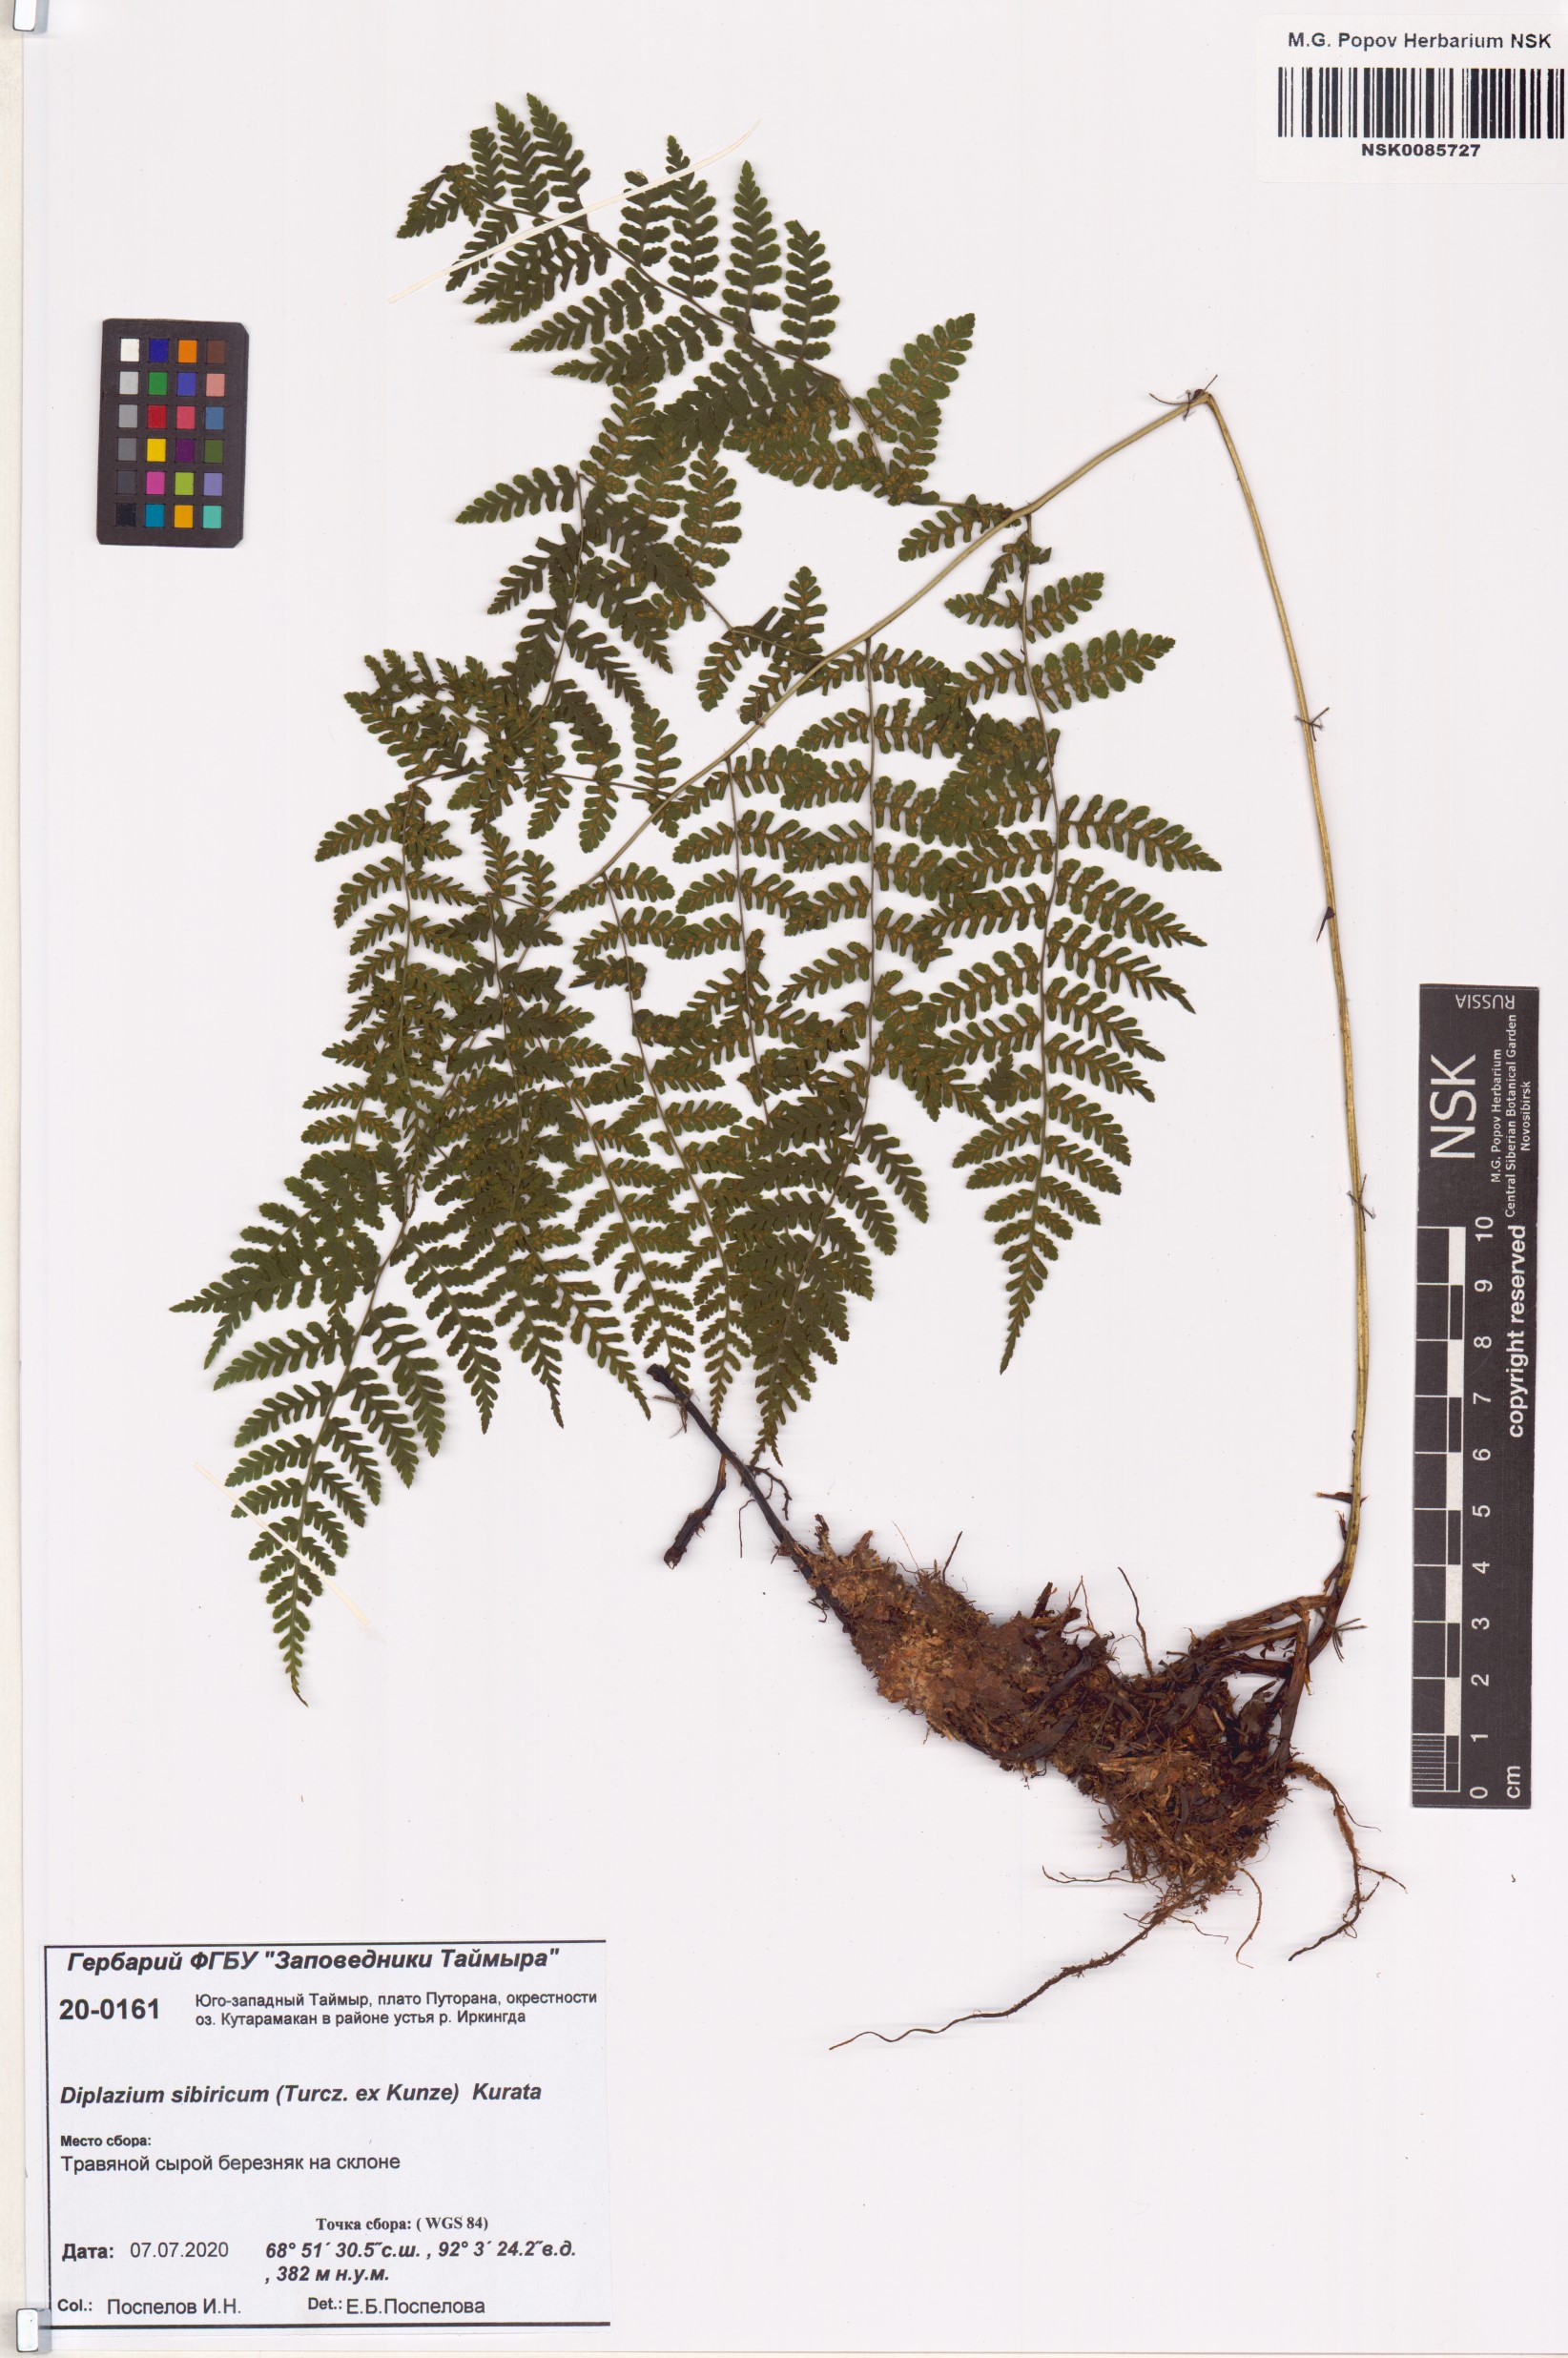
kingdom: Plantae
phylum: Tracheophyta
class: Polypodiopsida
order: Polypodiales
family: Athyriaceae
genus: Diplazium
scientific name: Diplazium sibiricum
